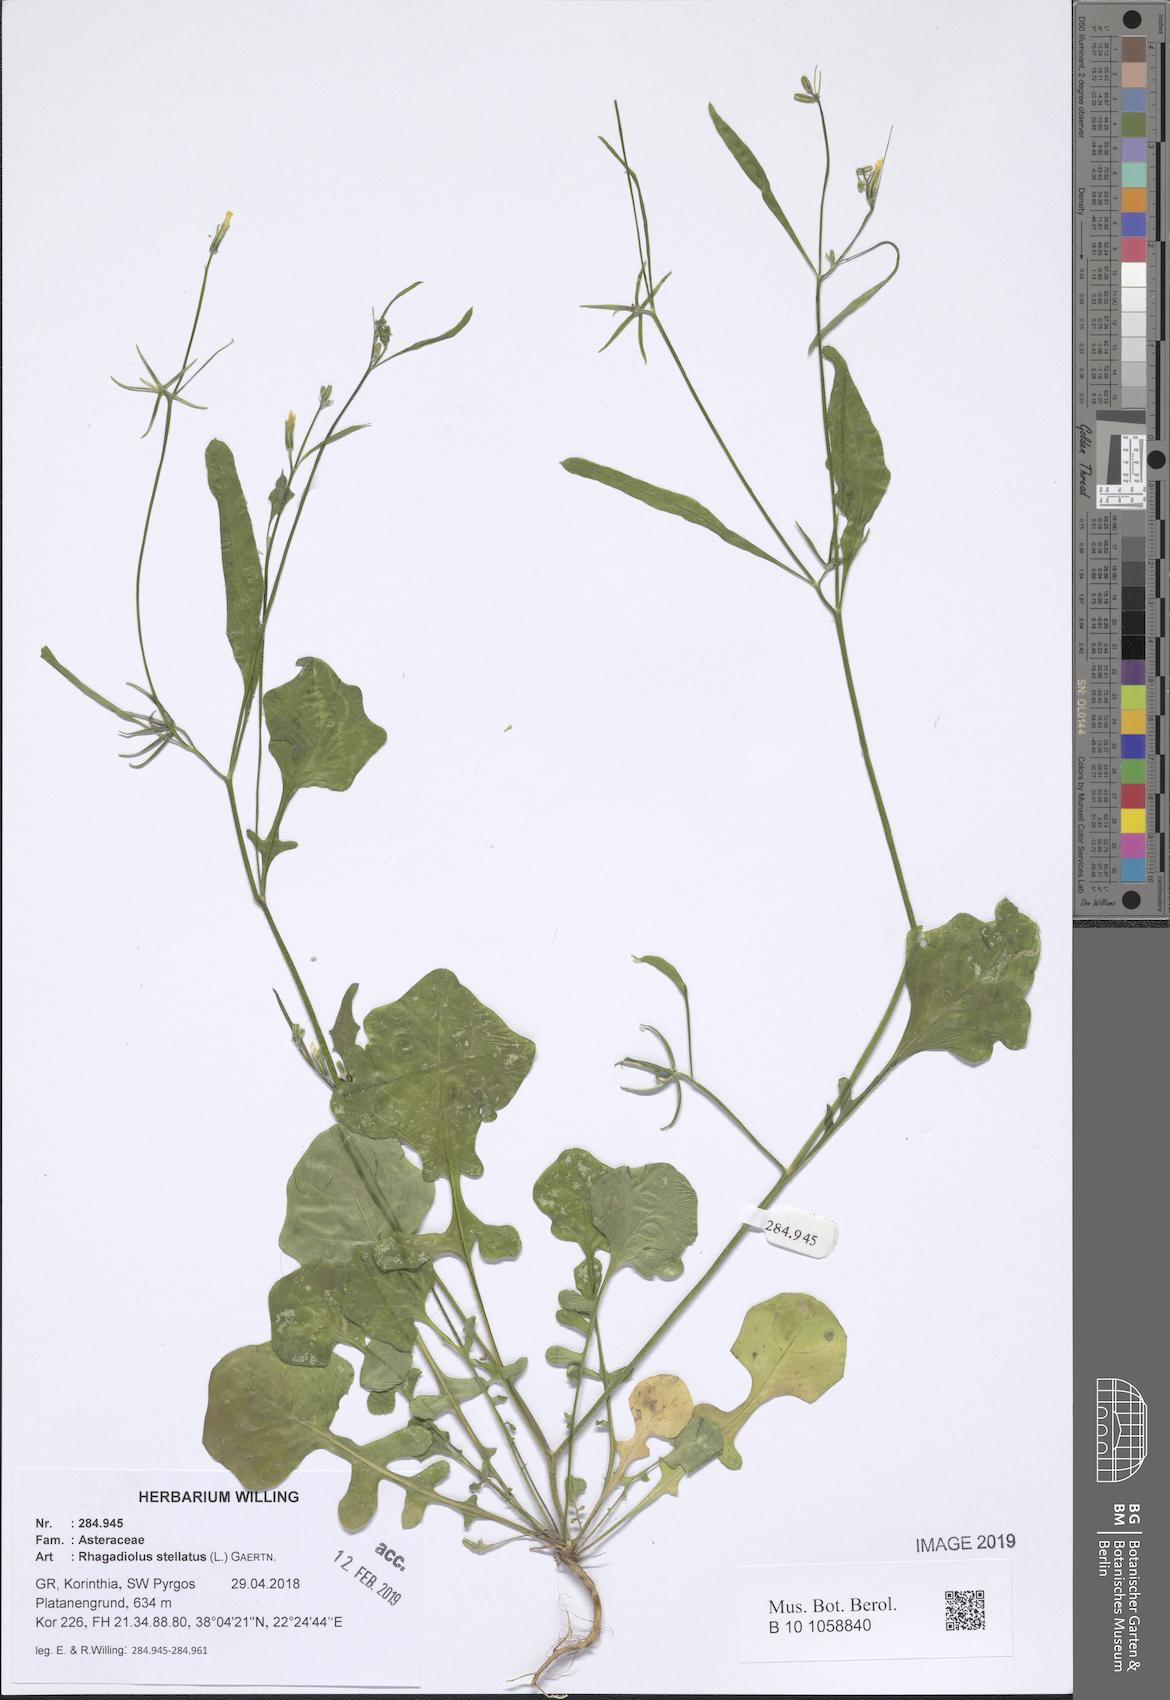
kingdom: Plantae
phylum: Tracheophyta
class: Magnoliopsida
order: Asterales
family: Asteraceae
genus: Rhagadiolus
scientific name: Rhagadiolus stellatus
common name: Star hawkbit
